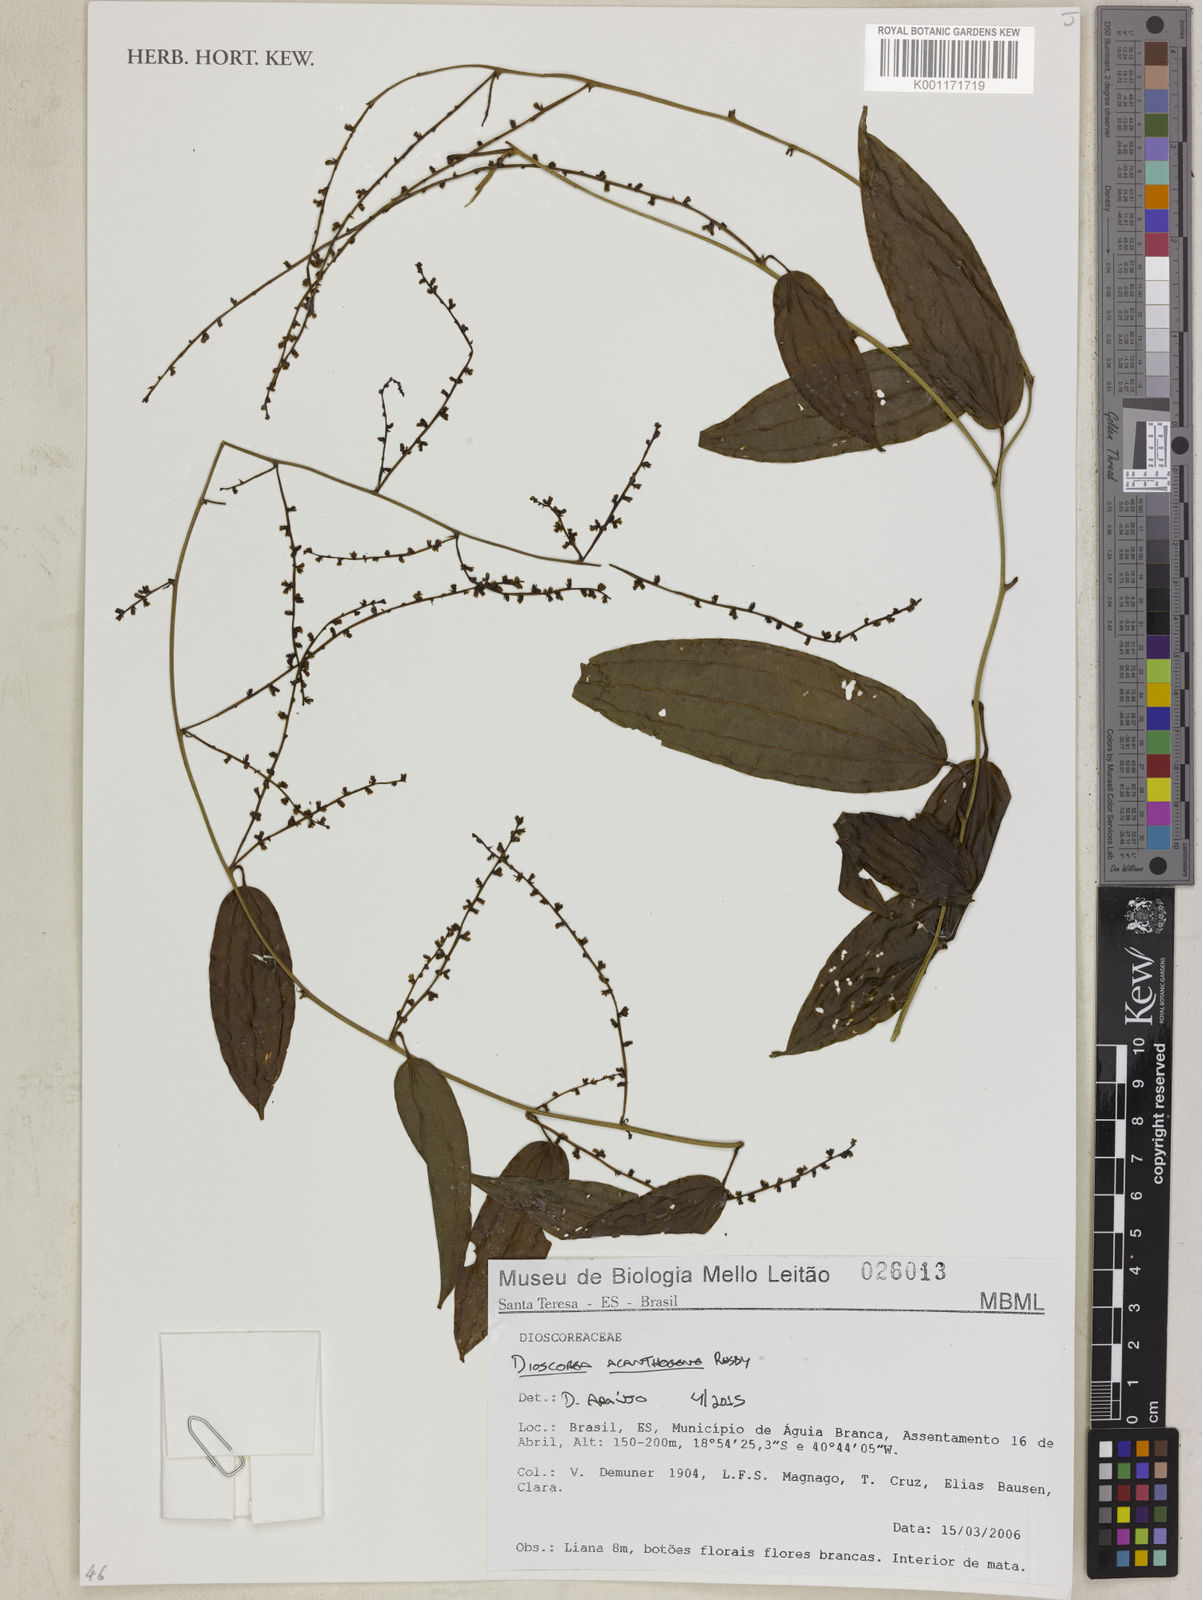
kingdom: Plantae
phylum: Tracheophyta
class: Liliopsida
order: Dioscoreales
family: Dioscoreaceae
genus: Dioscorea
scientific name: Dioscorea acanthogene
